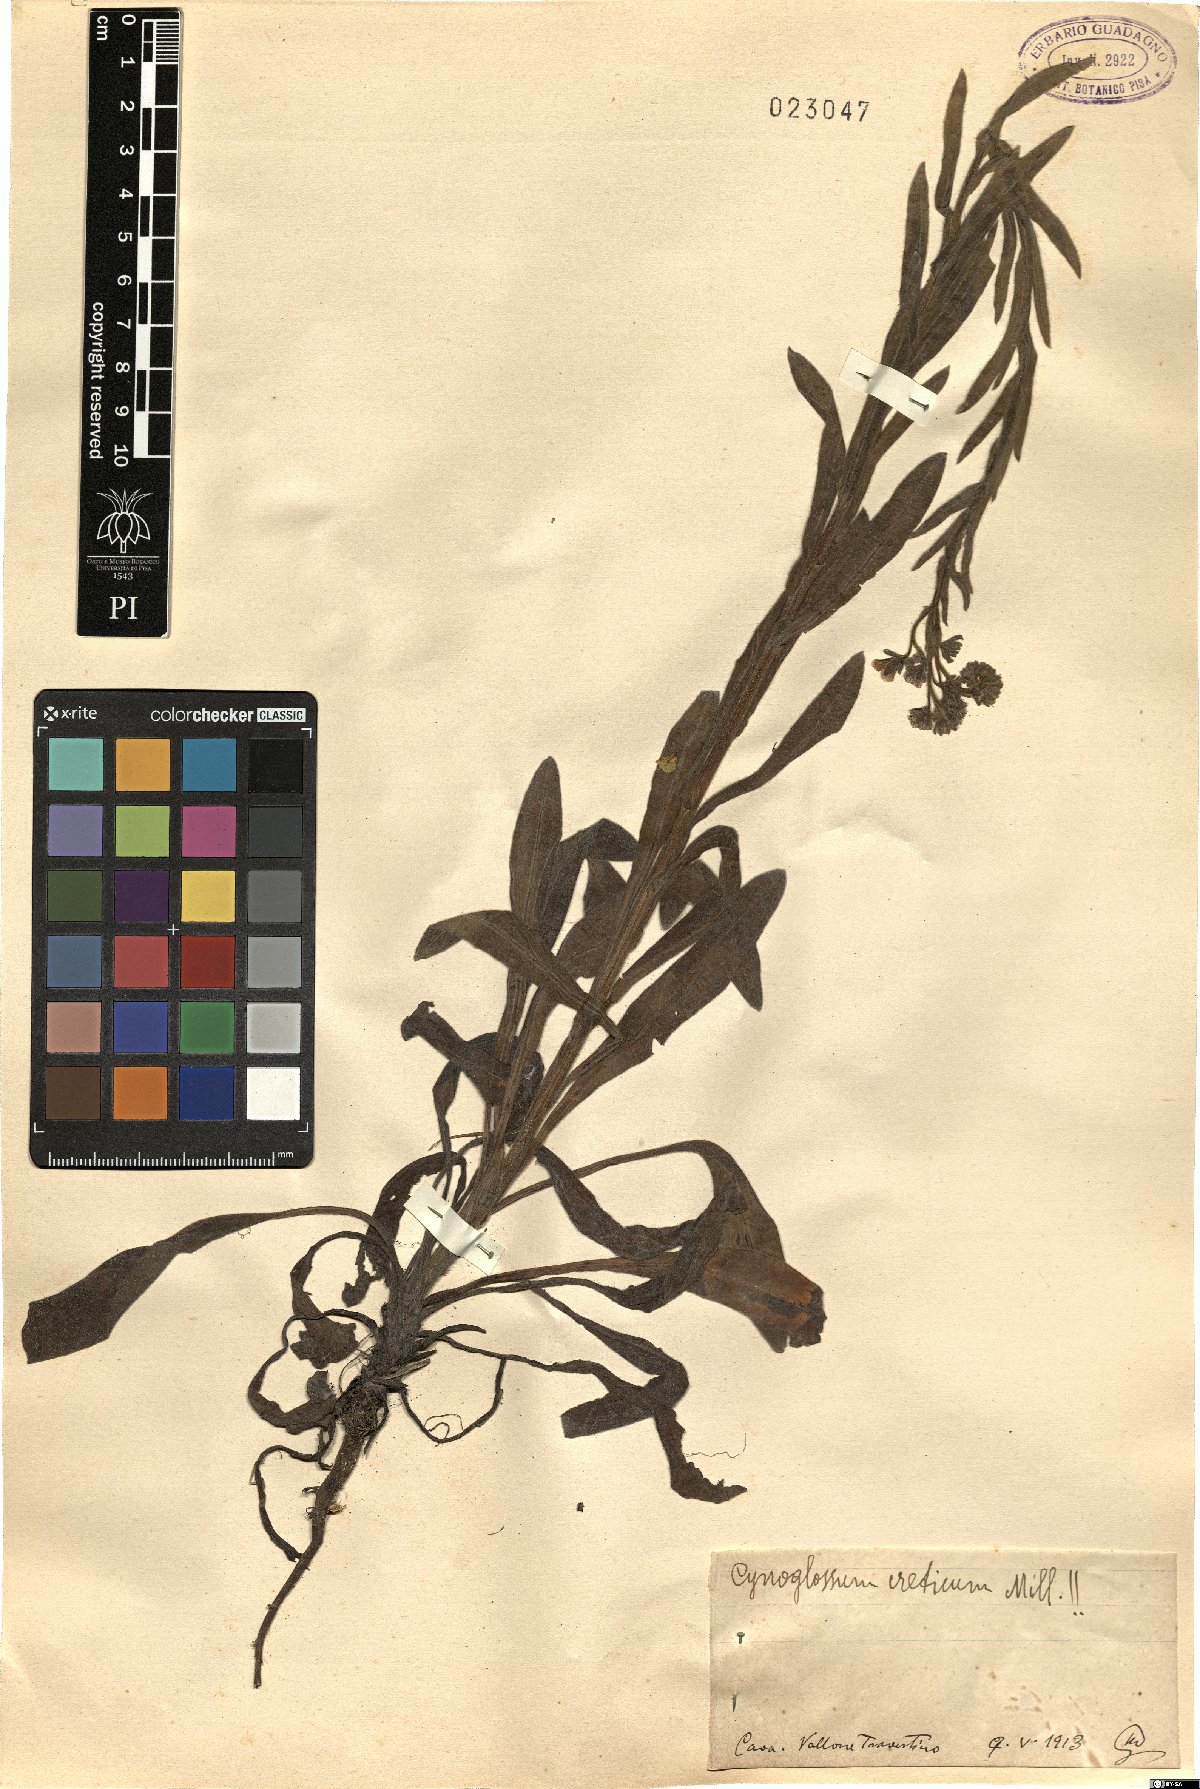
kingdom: Plantae
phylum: Tracheophyta
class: Magnoliopsida
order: Boraginales
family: Boraginaceae
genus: Cynoglossum
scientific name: Cynoglossum creticum
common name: Blue hound's tongue
